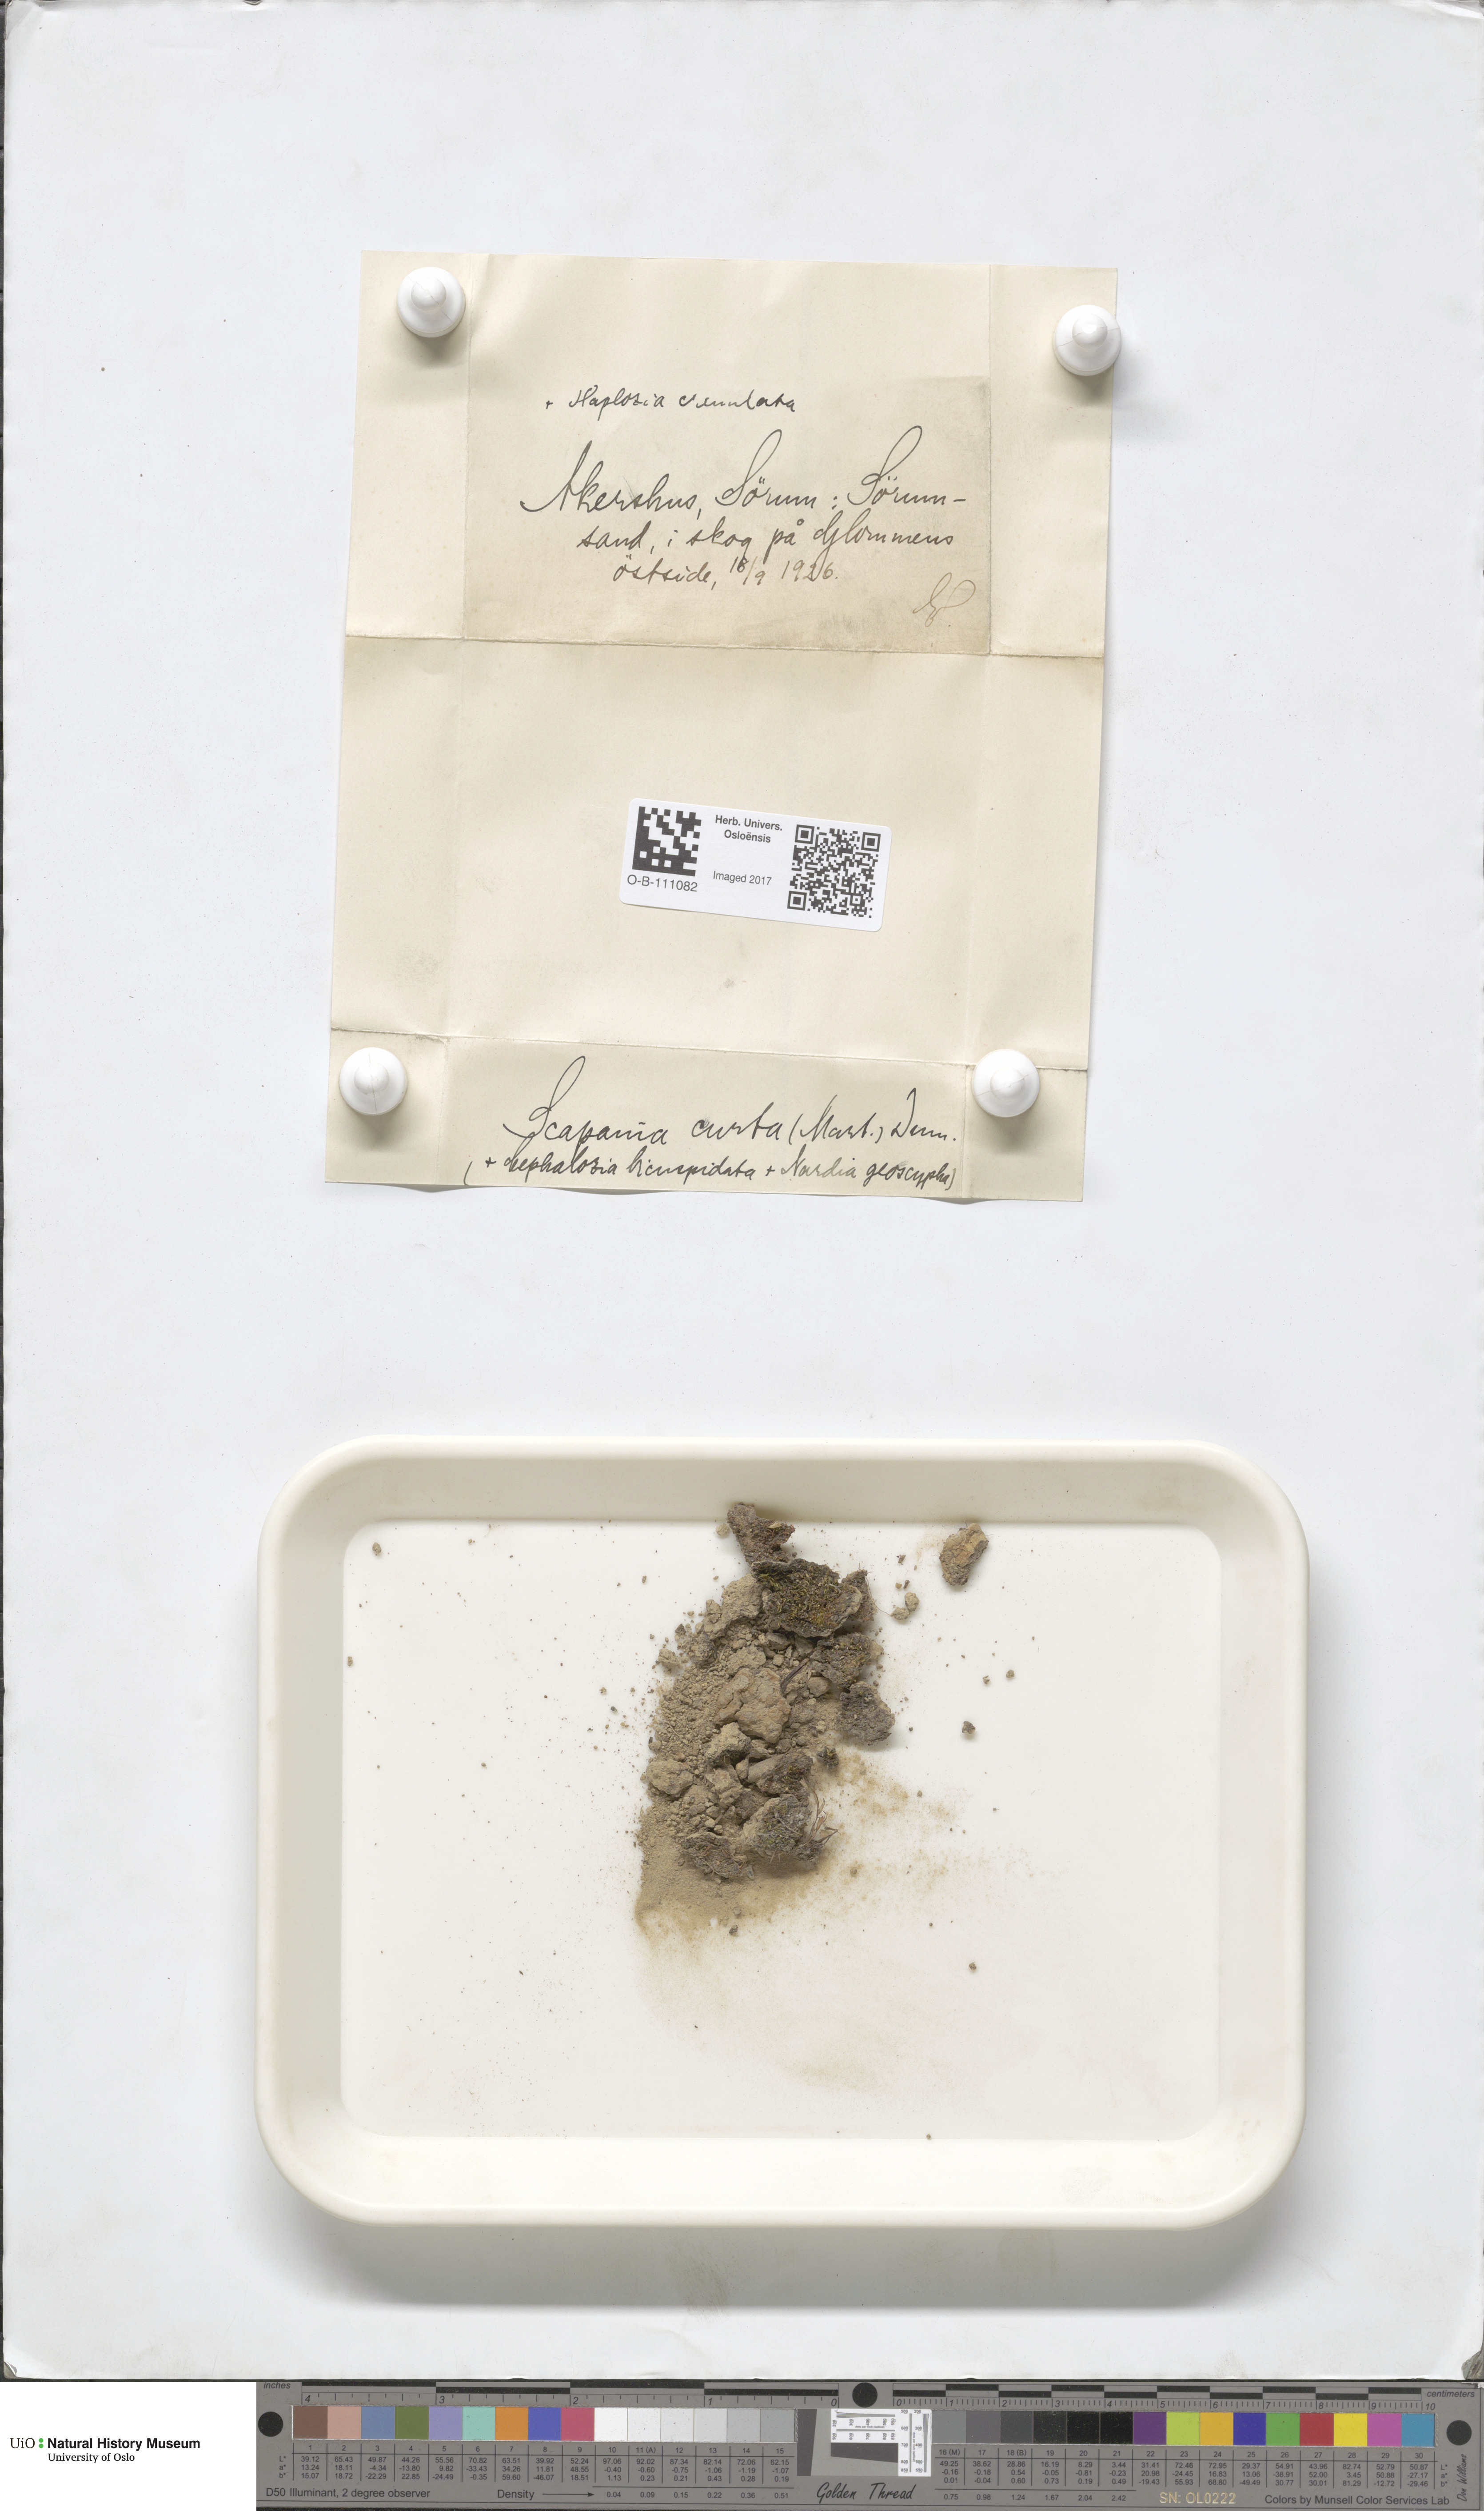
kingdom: Plantae
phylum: Marchantiophyta
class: Jungermanniopsida
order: Jungermanniales
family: Scapaniaceae
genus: Scapania
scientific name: Scapania curta
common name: Least earwort
